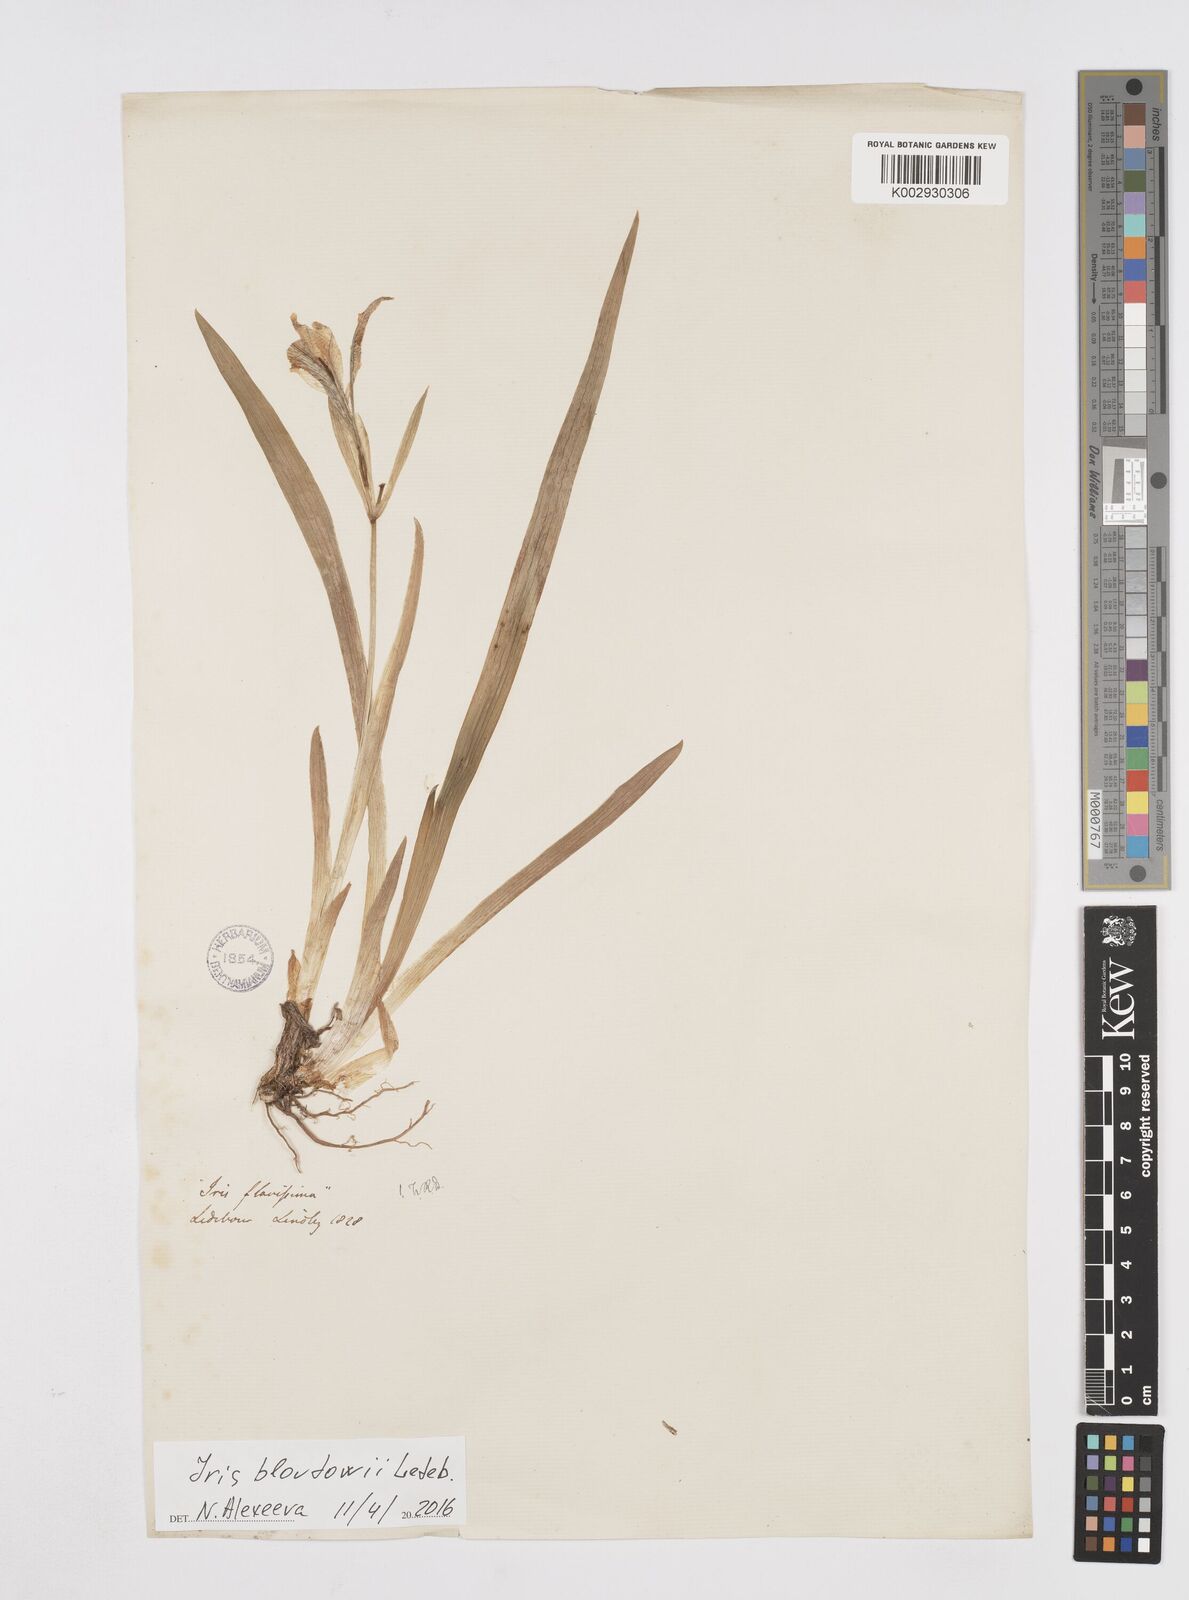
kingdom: Plantae
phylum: Tracheophyta
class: Liliopsida
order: Asparagales
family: Iridaceae
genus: Iris
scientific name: Iris humilis
